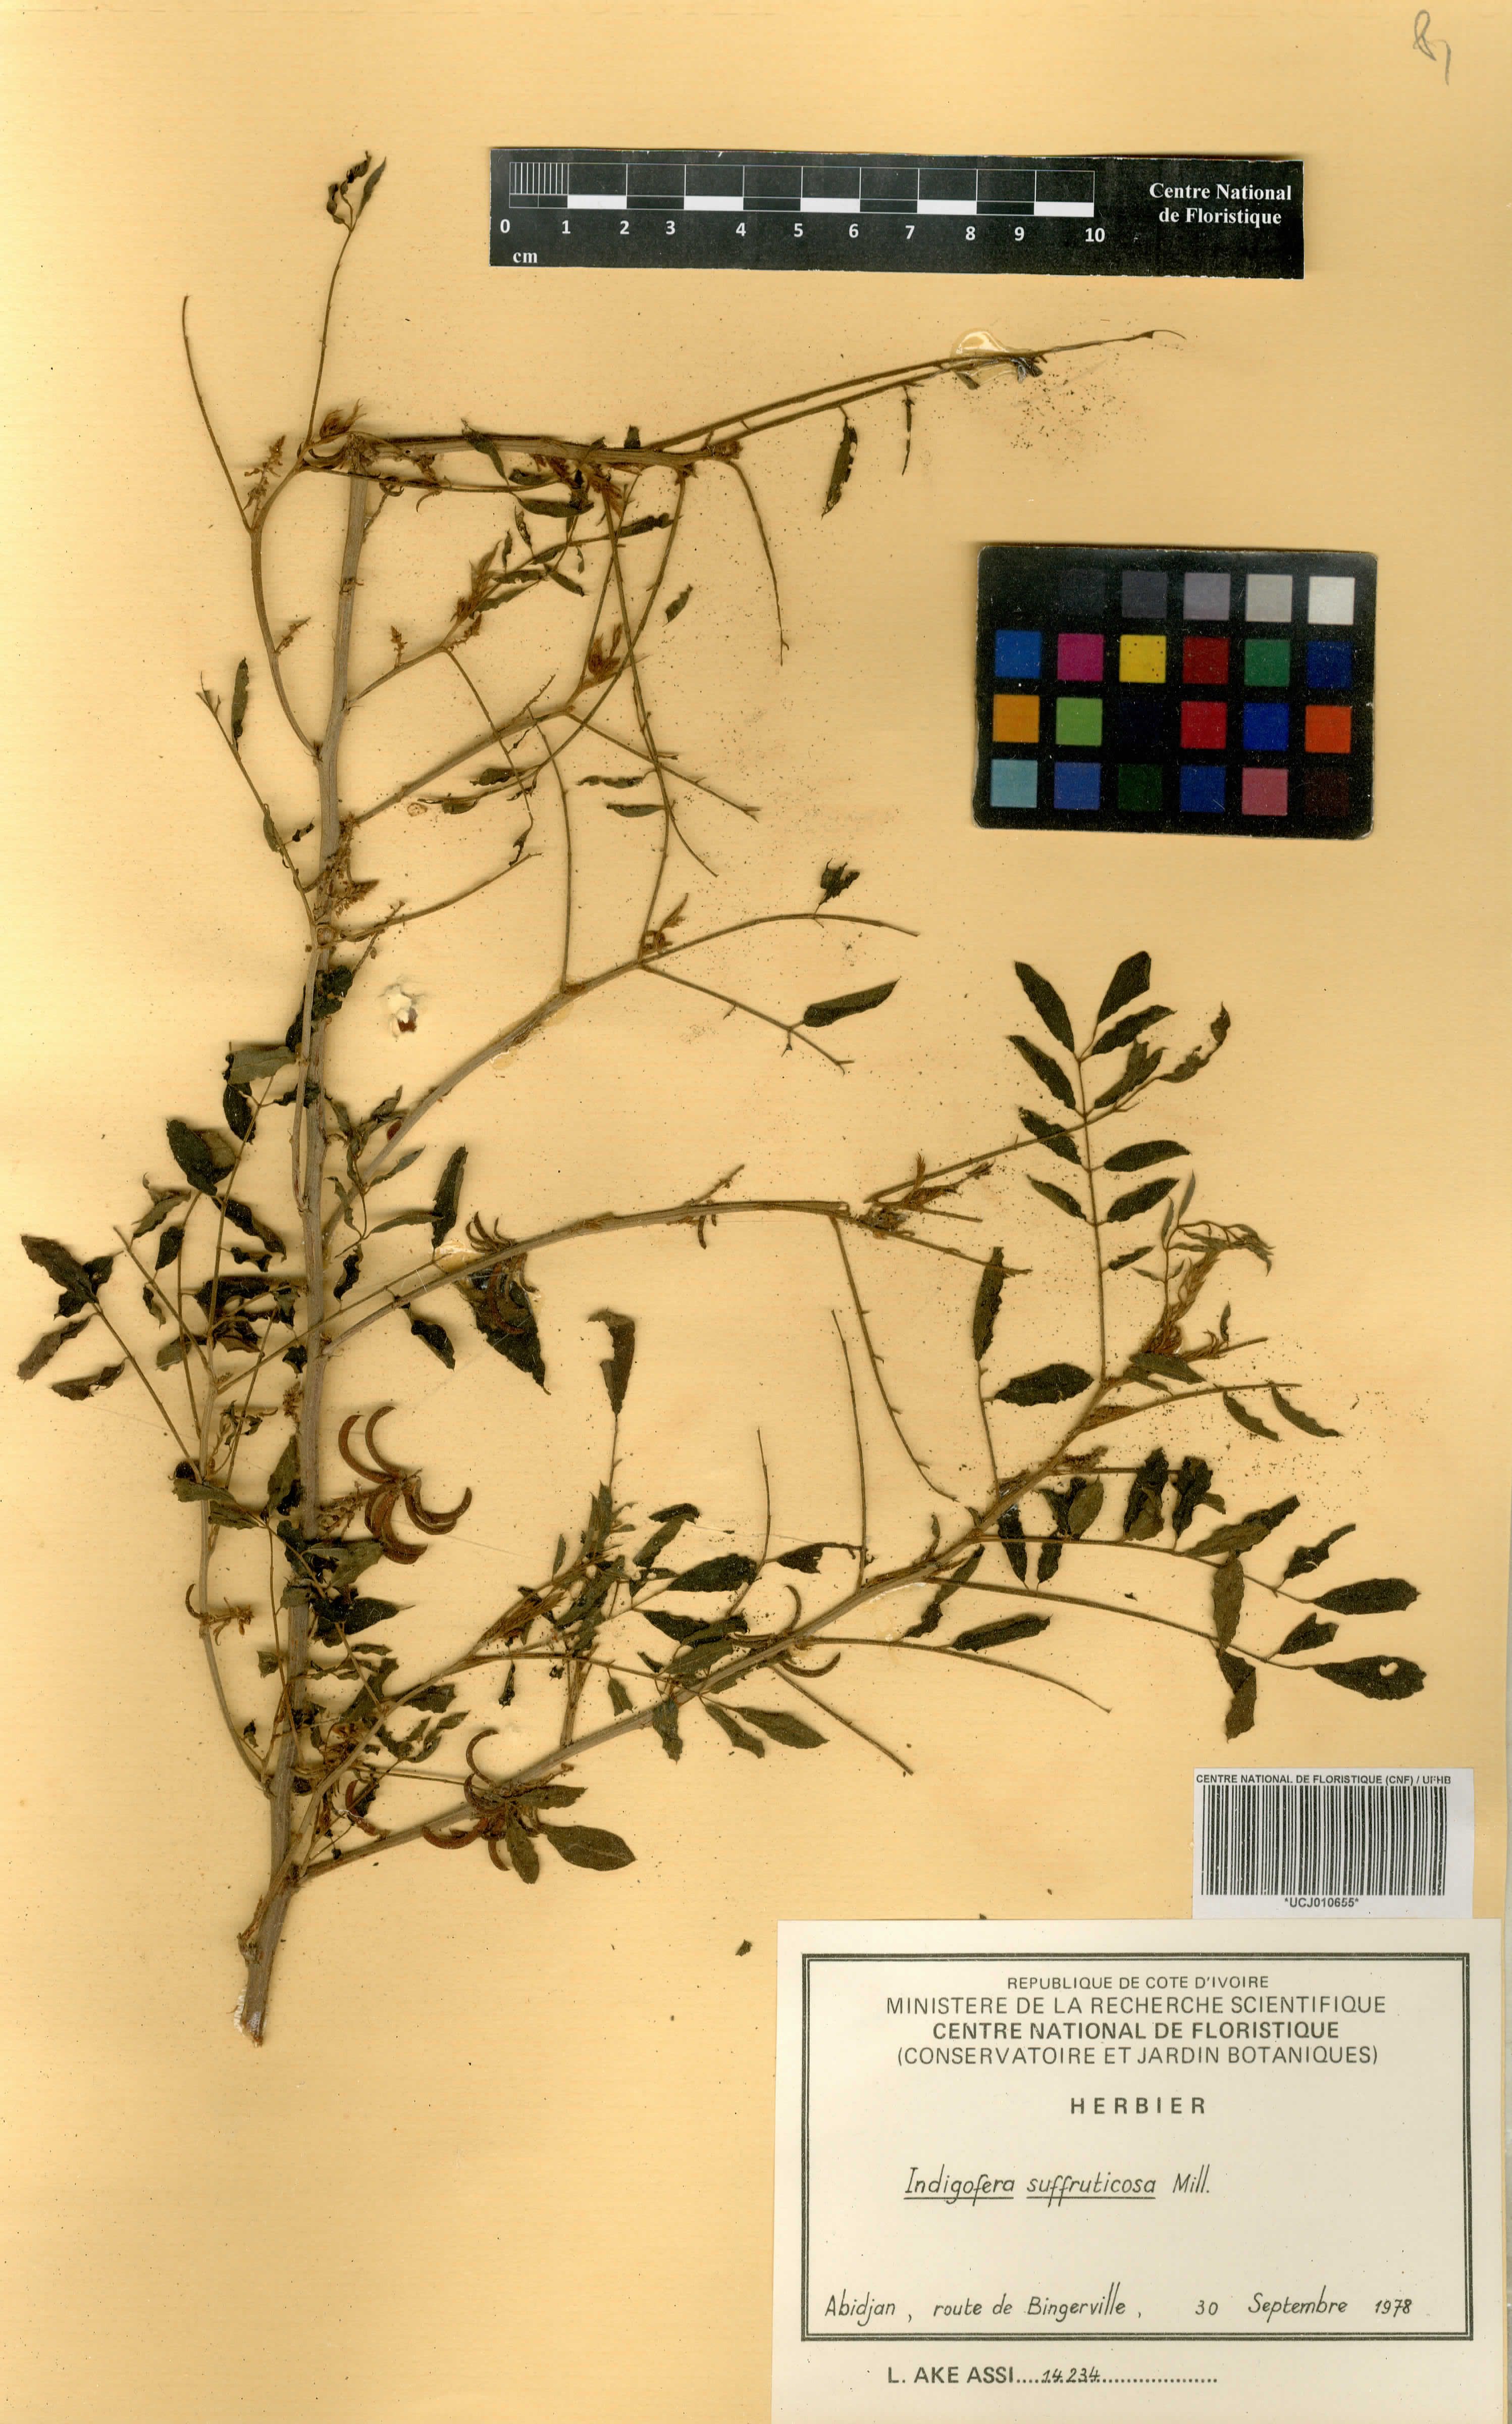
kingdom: Plantae
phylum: Tracheophyta
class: Magnoliopsida
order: Fabales
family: Fabaceae
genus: Indigofera
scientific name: Indigofera suffruticosa
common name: Anil de pasto
